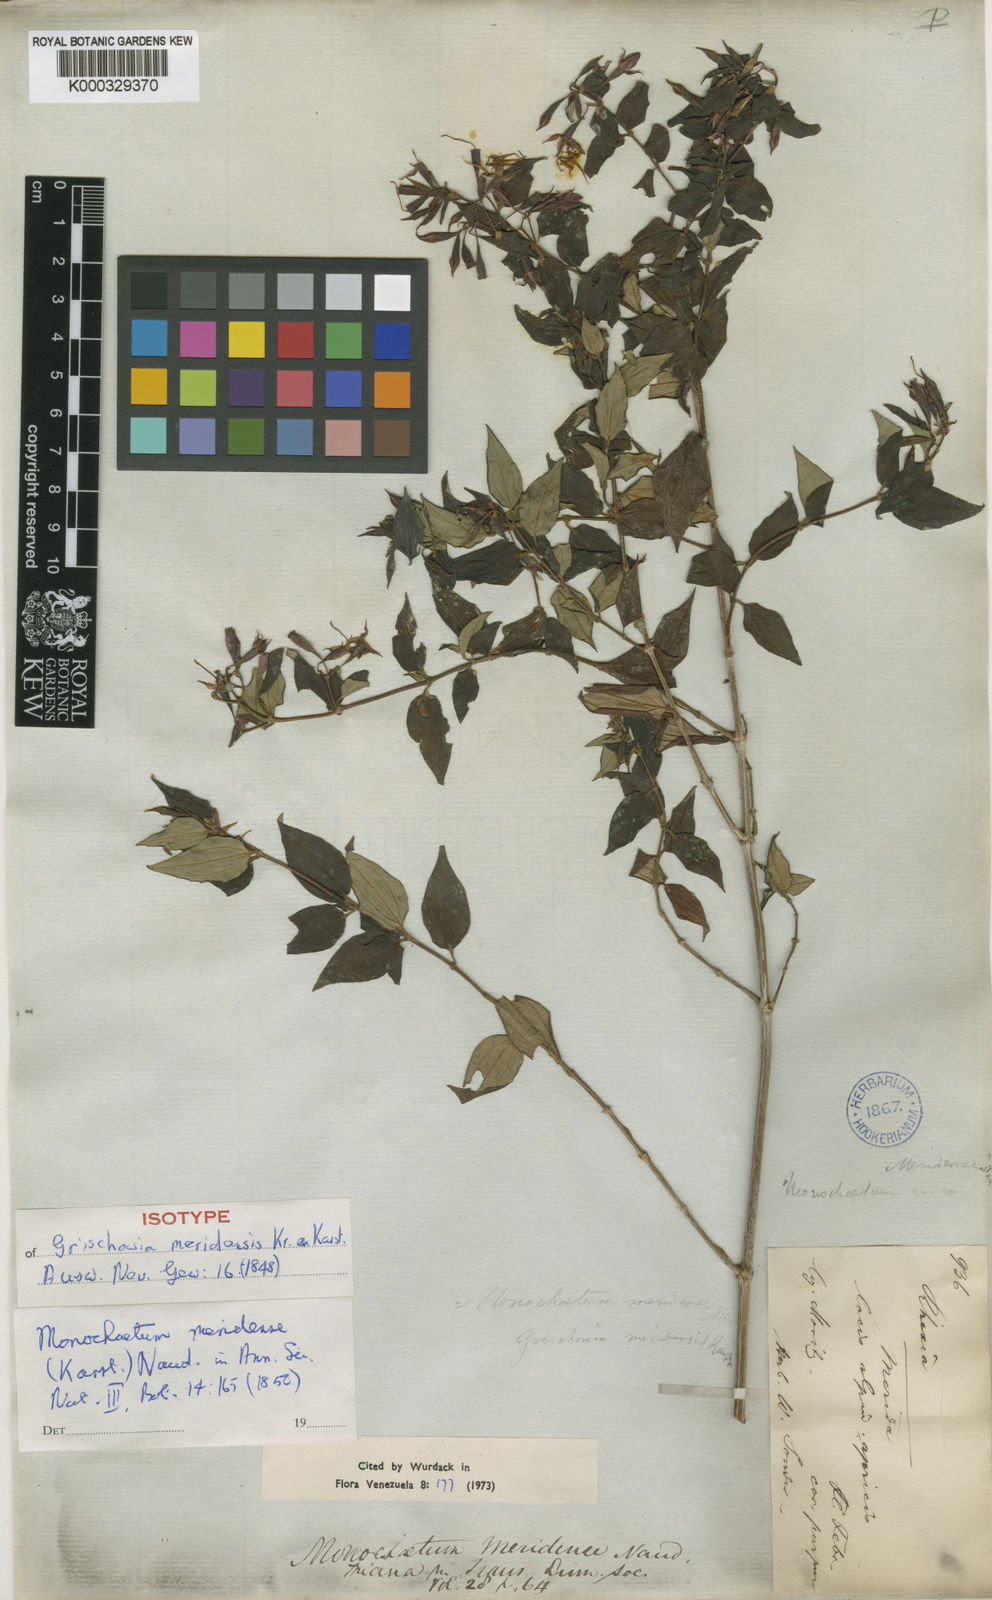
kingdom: Plantae
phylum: Tracheophyta
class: Magnoliopsida
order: Myrtales
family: Melastomataceae
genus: Monochaetum
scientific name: Monochaetum meridense
